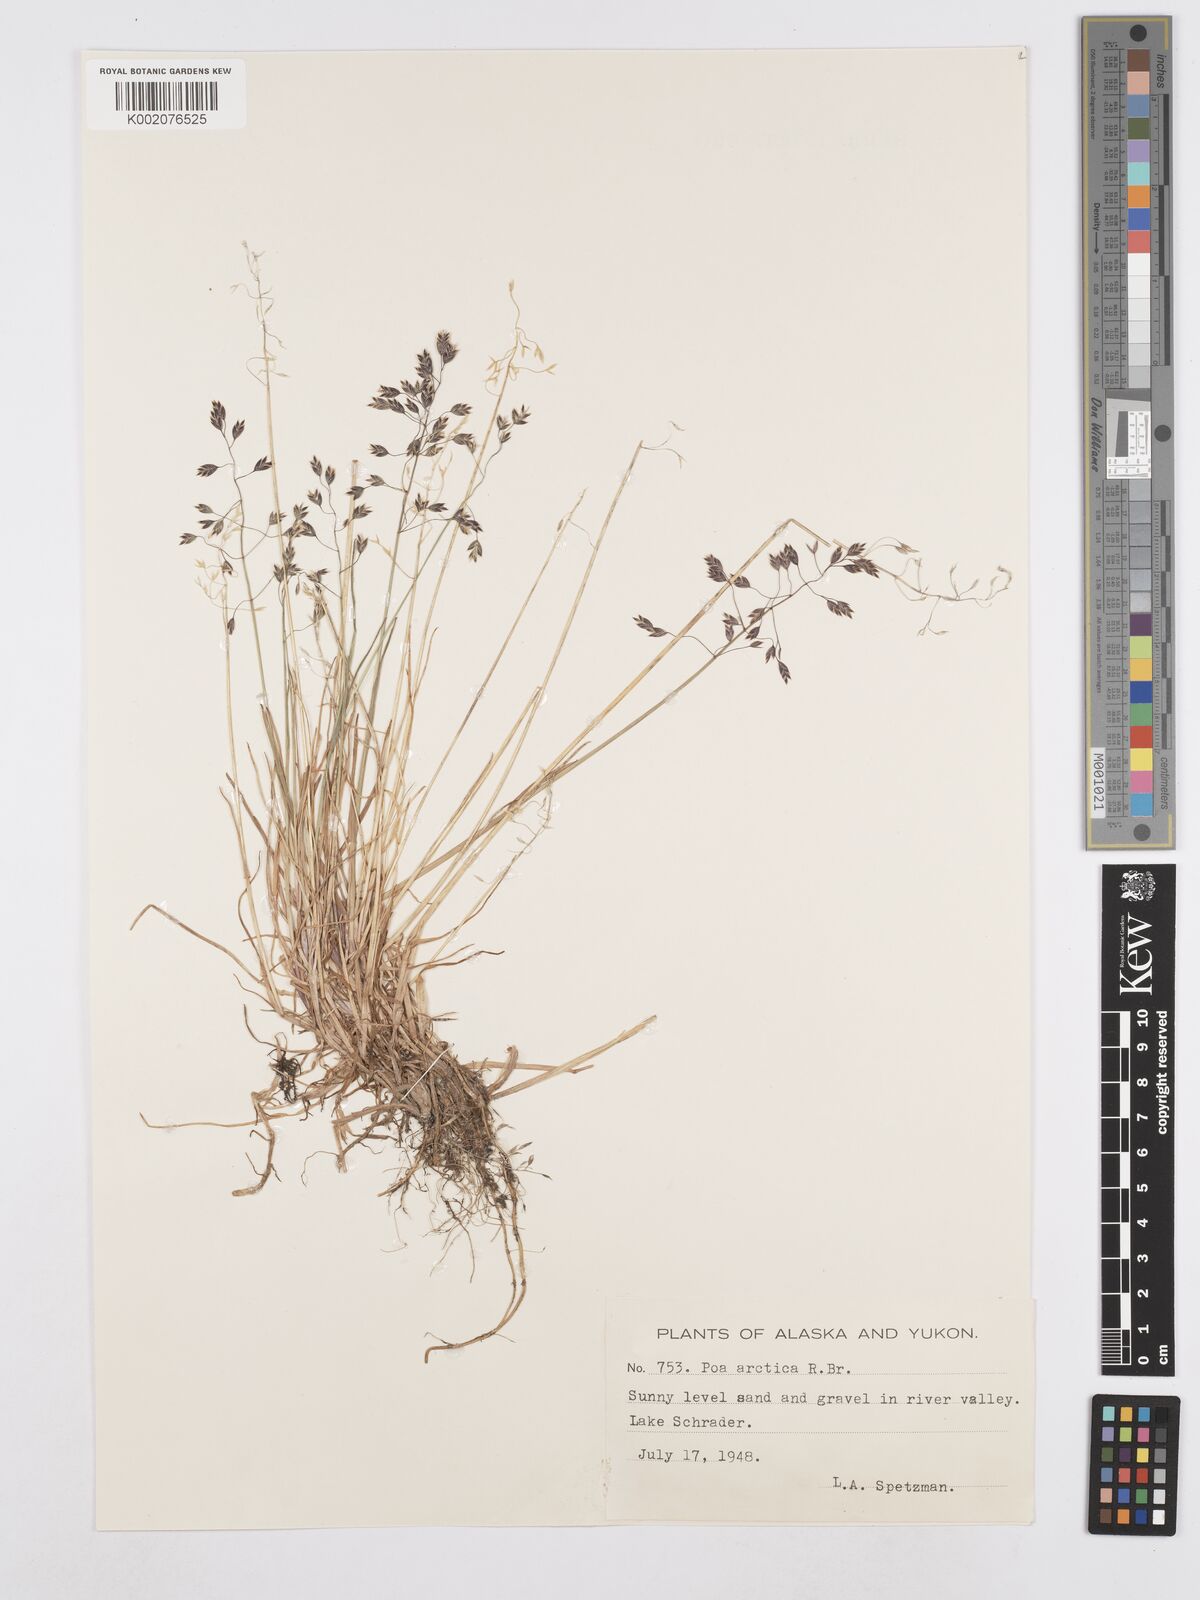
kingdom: Plantae
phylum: Tracheophyta
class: Liliopsida
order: Poales
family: Poaceae
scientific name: Poaceae
